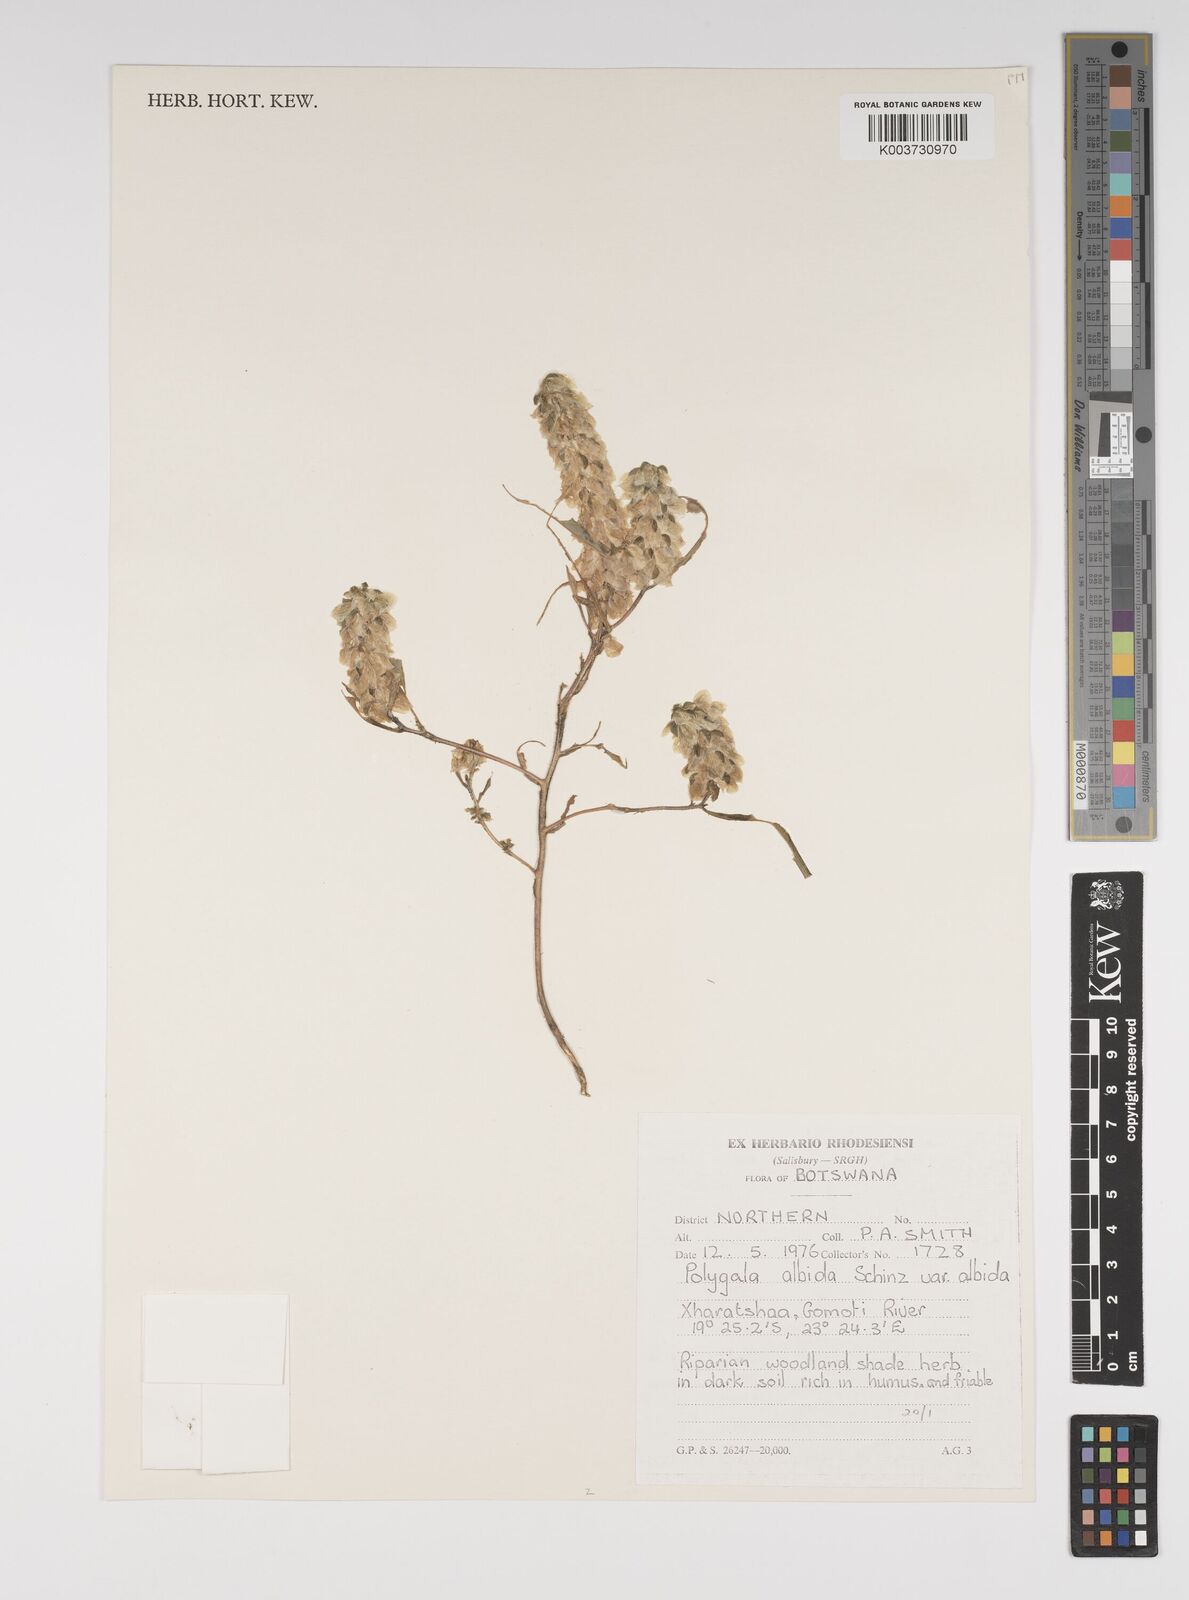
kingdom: Plantae
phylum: Tracheophyta
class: Magnoliopsida
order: Fabales
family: Polygalaceae
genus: Polygala
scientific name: Polygala albida
